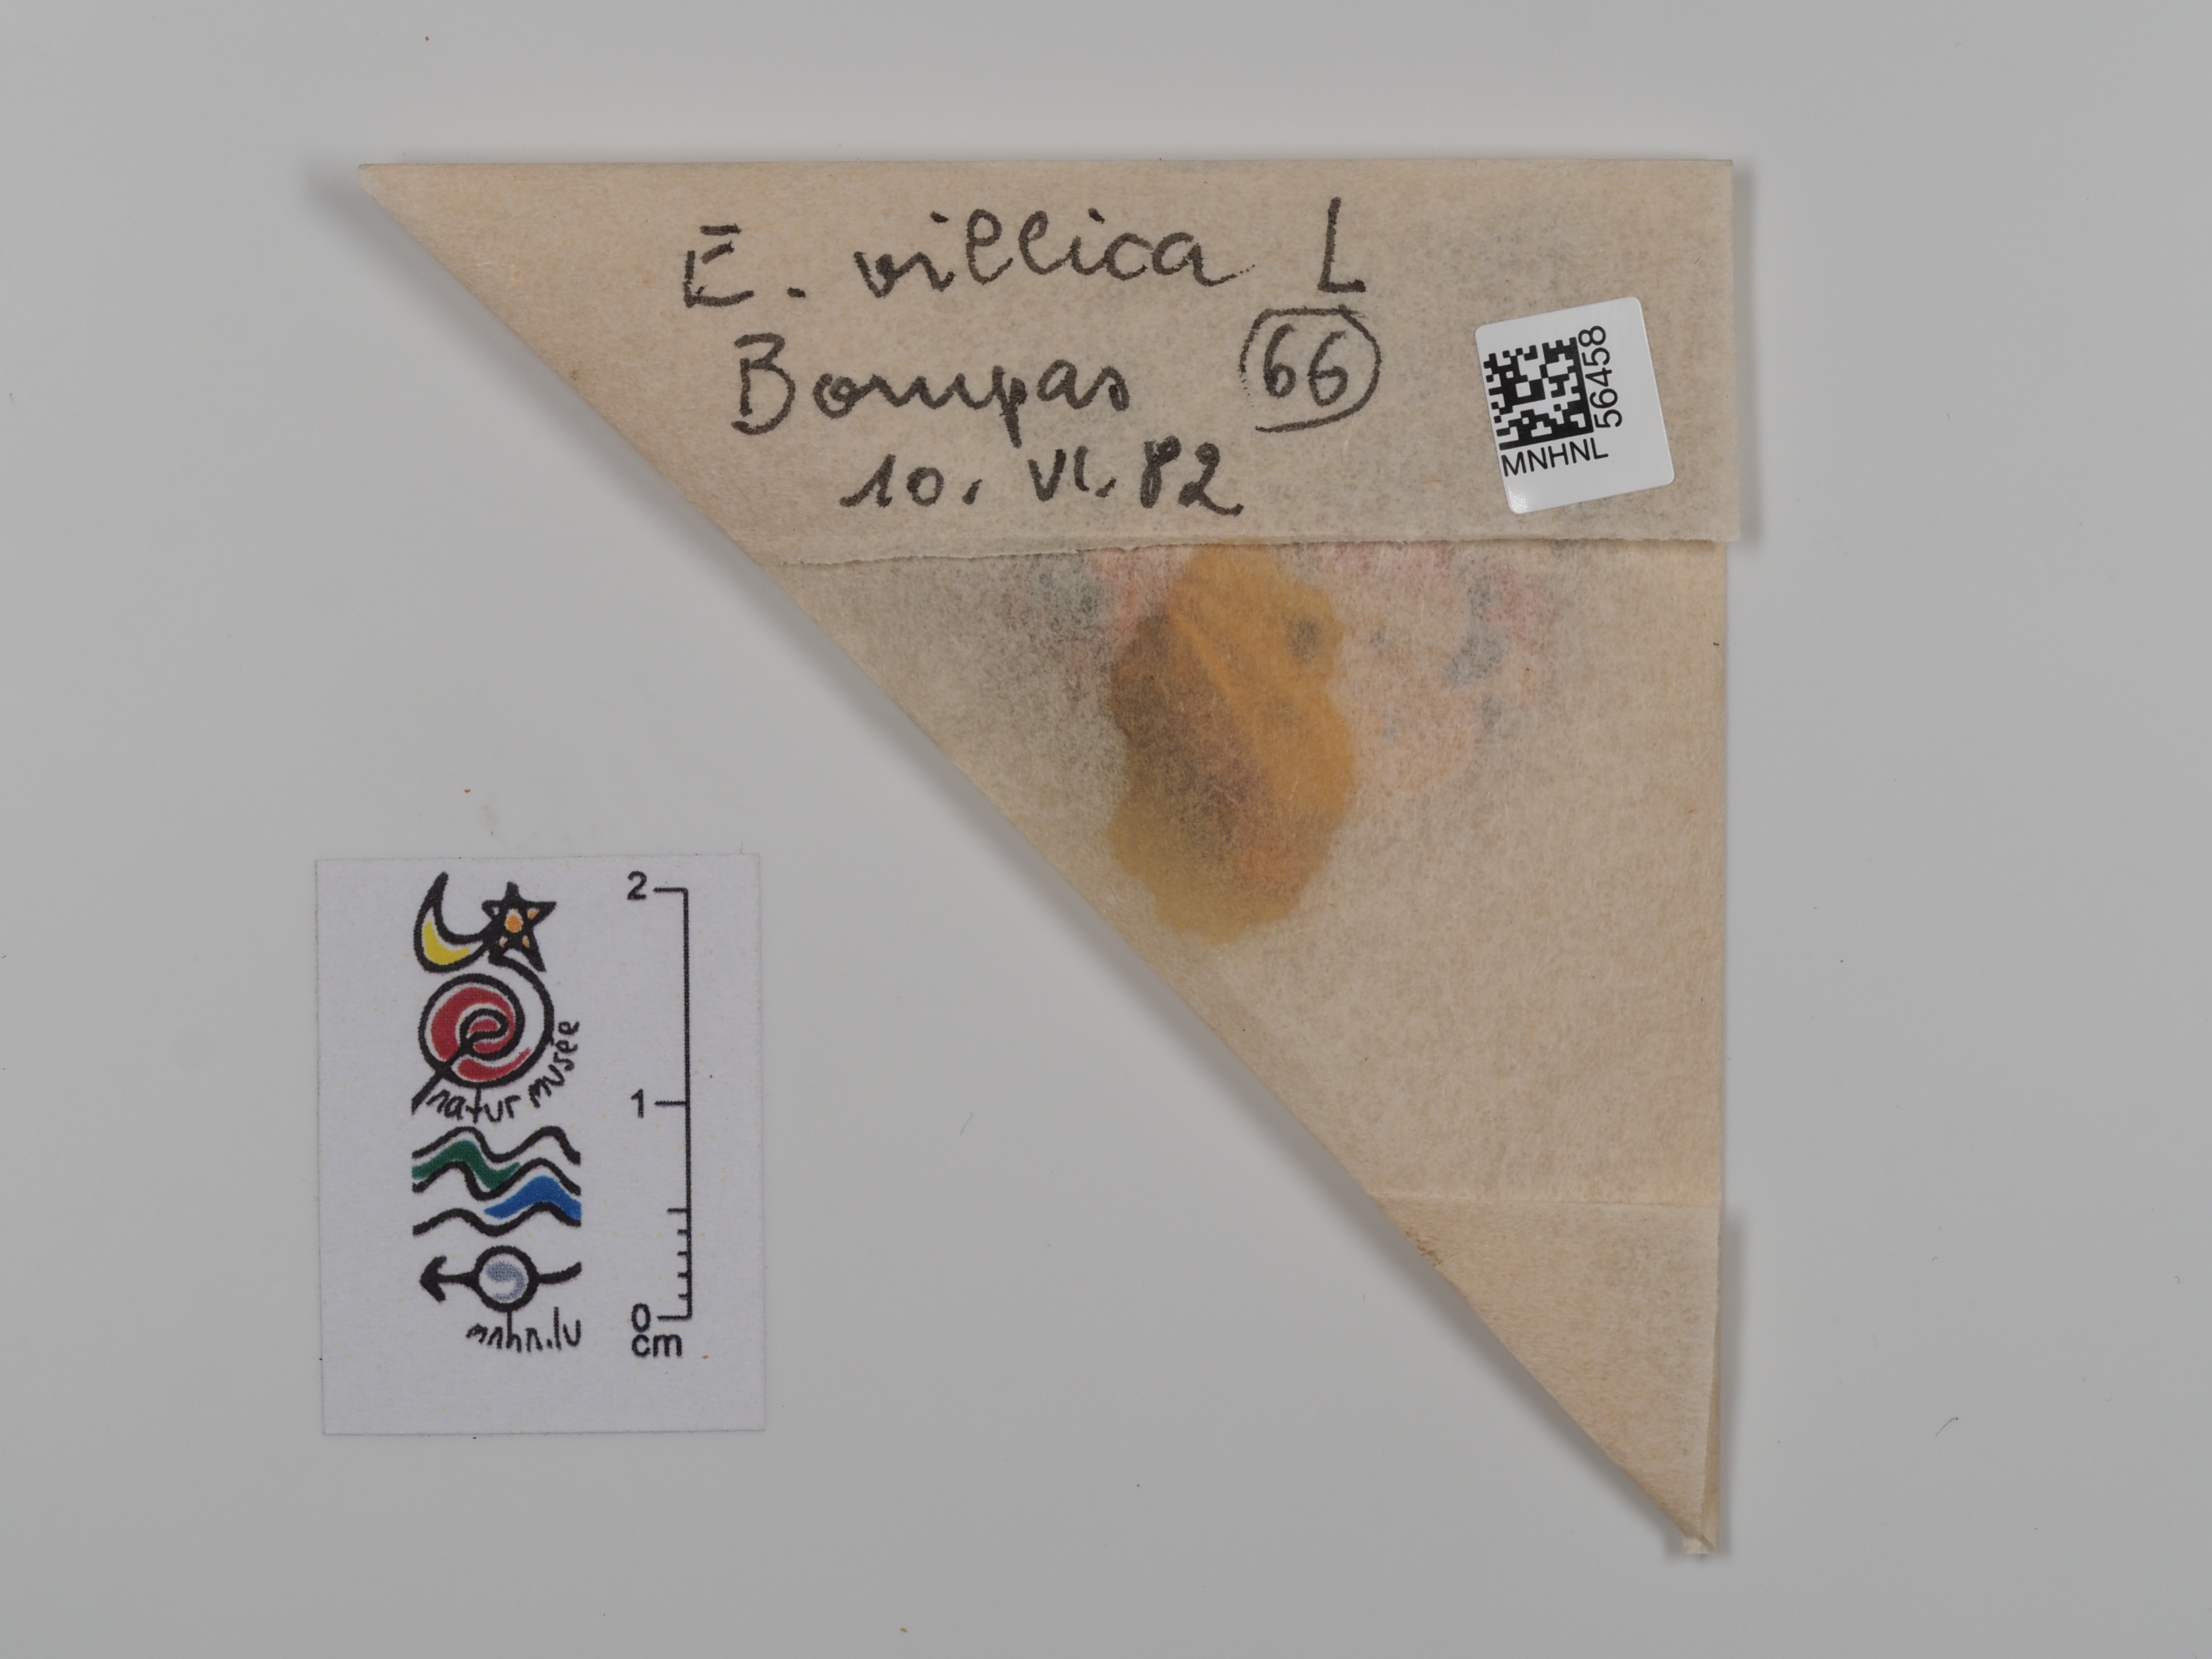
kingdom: Animalia
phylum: Arthropoda
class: Insecta
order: Lepidoptera
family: Erebidae
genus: Epicallia
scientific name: Epicallia villica
